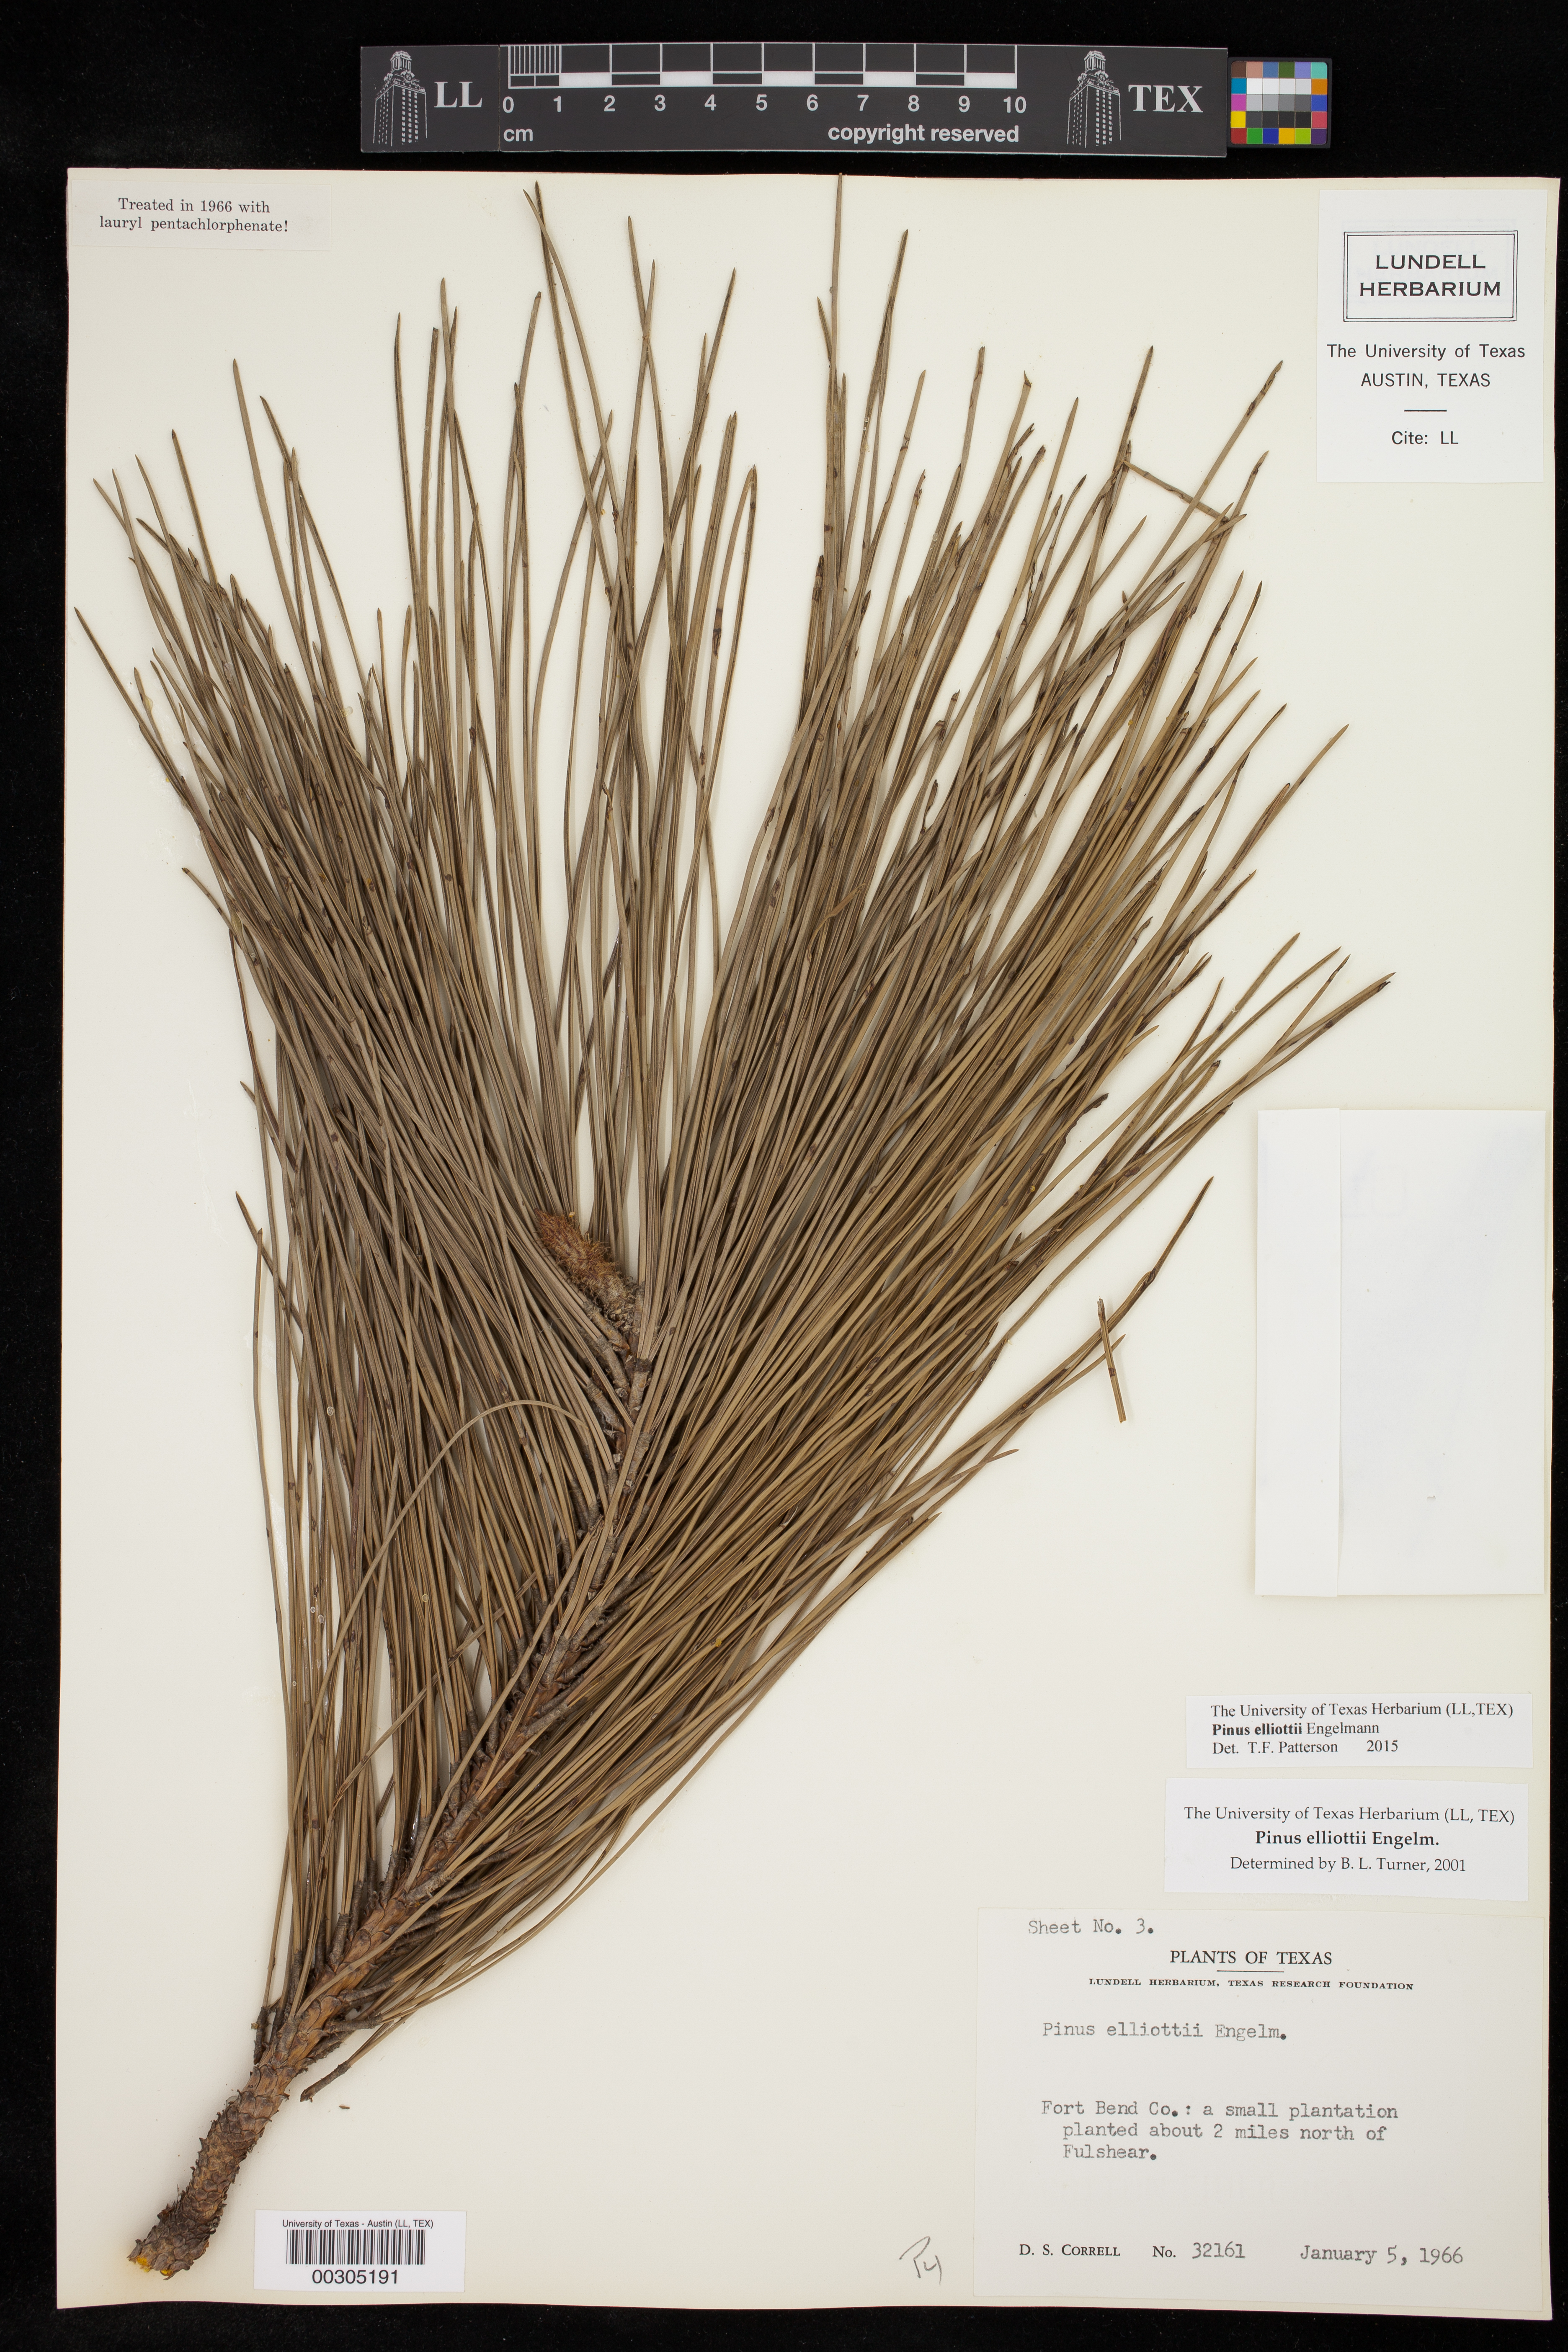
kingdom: Plantae
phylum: Tracheophyta
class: Pinopsida
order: Pinales
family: Pinaceae
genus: Pinus
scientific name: Pinus elliottii
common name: Slash pine
